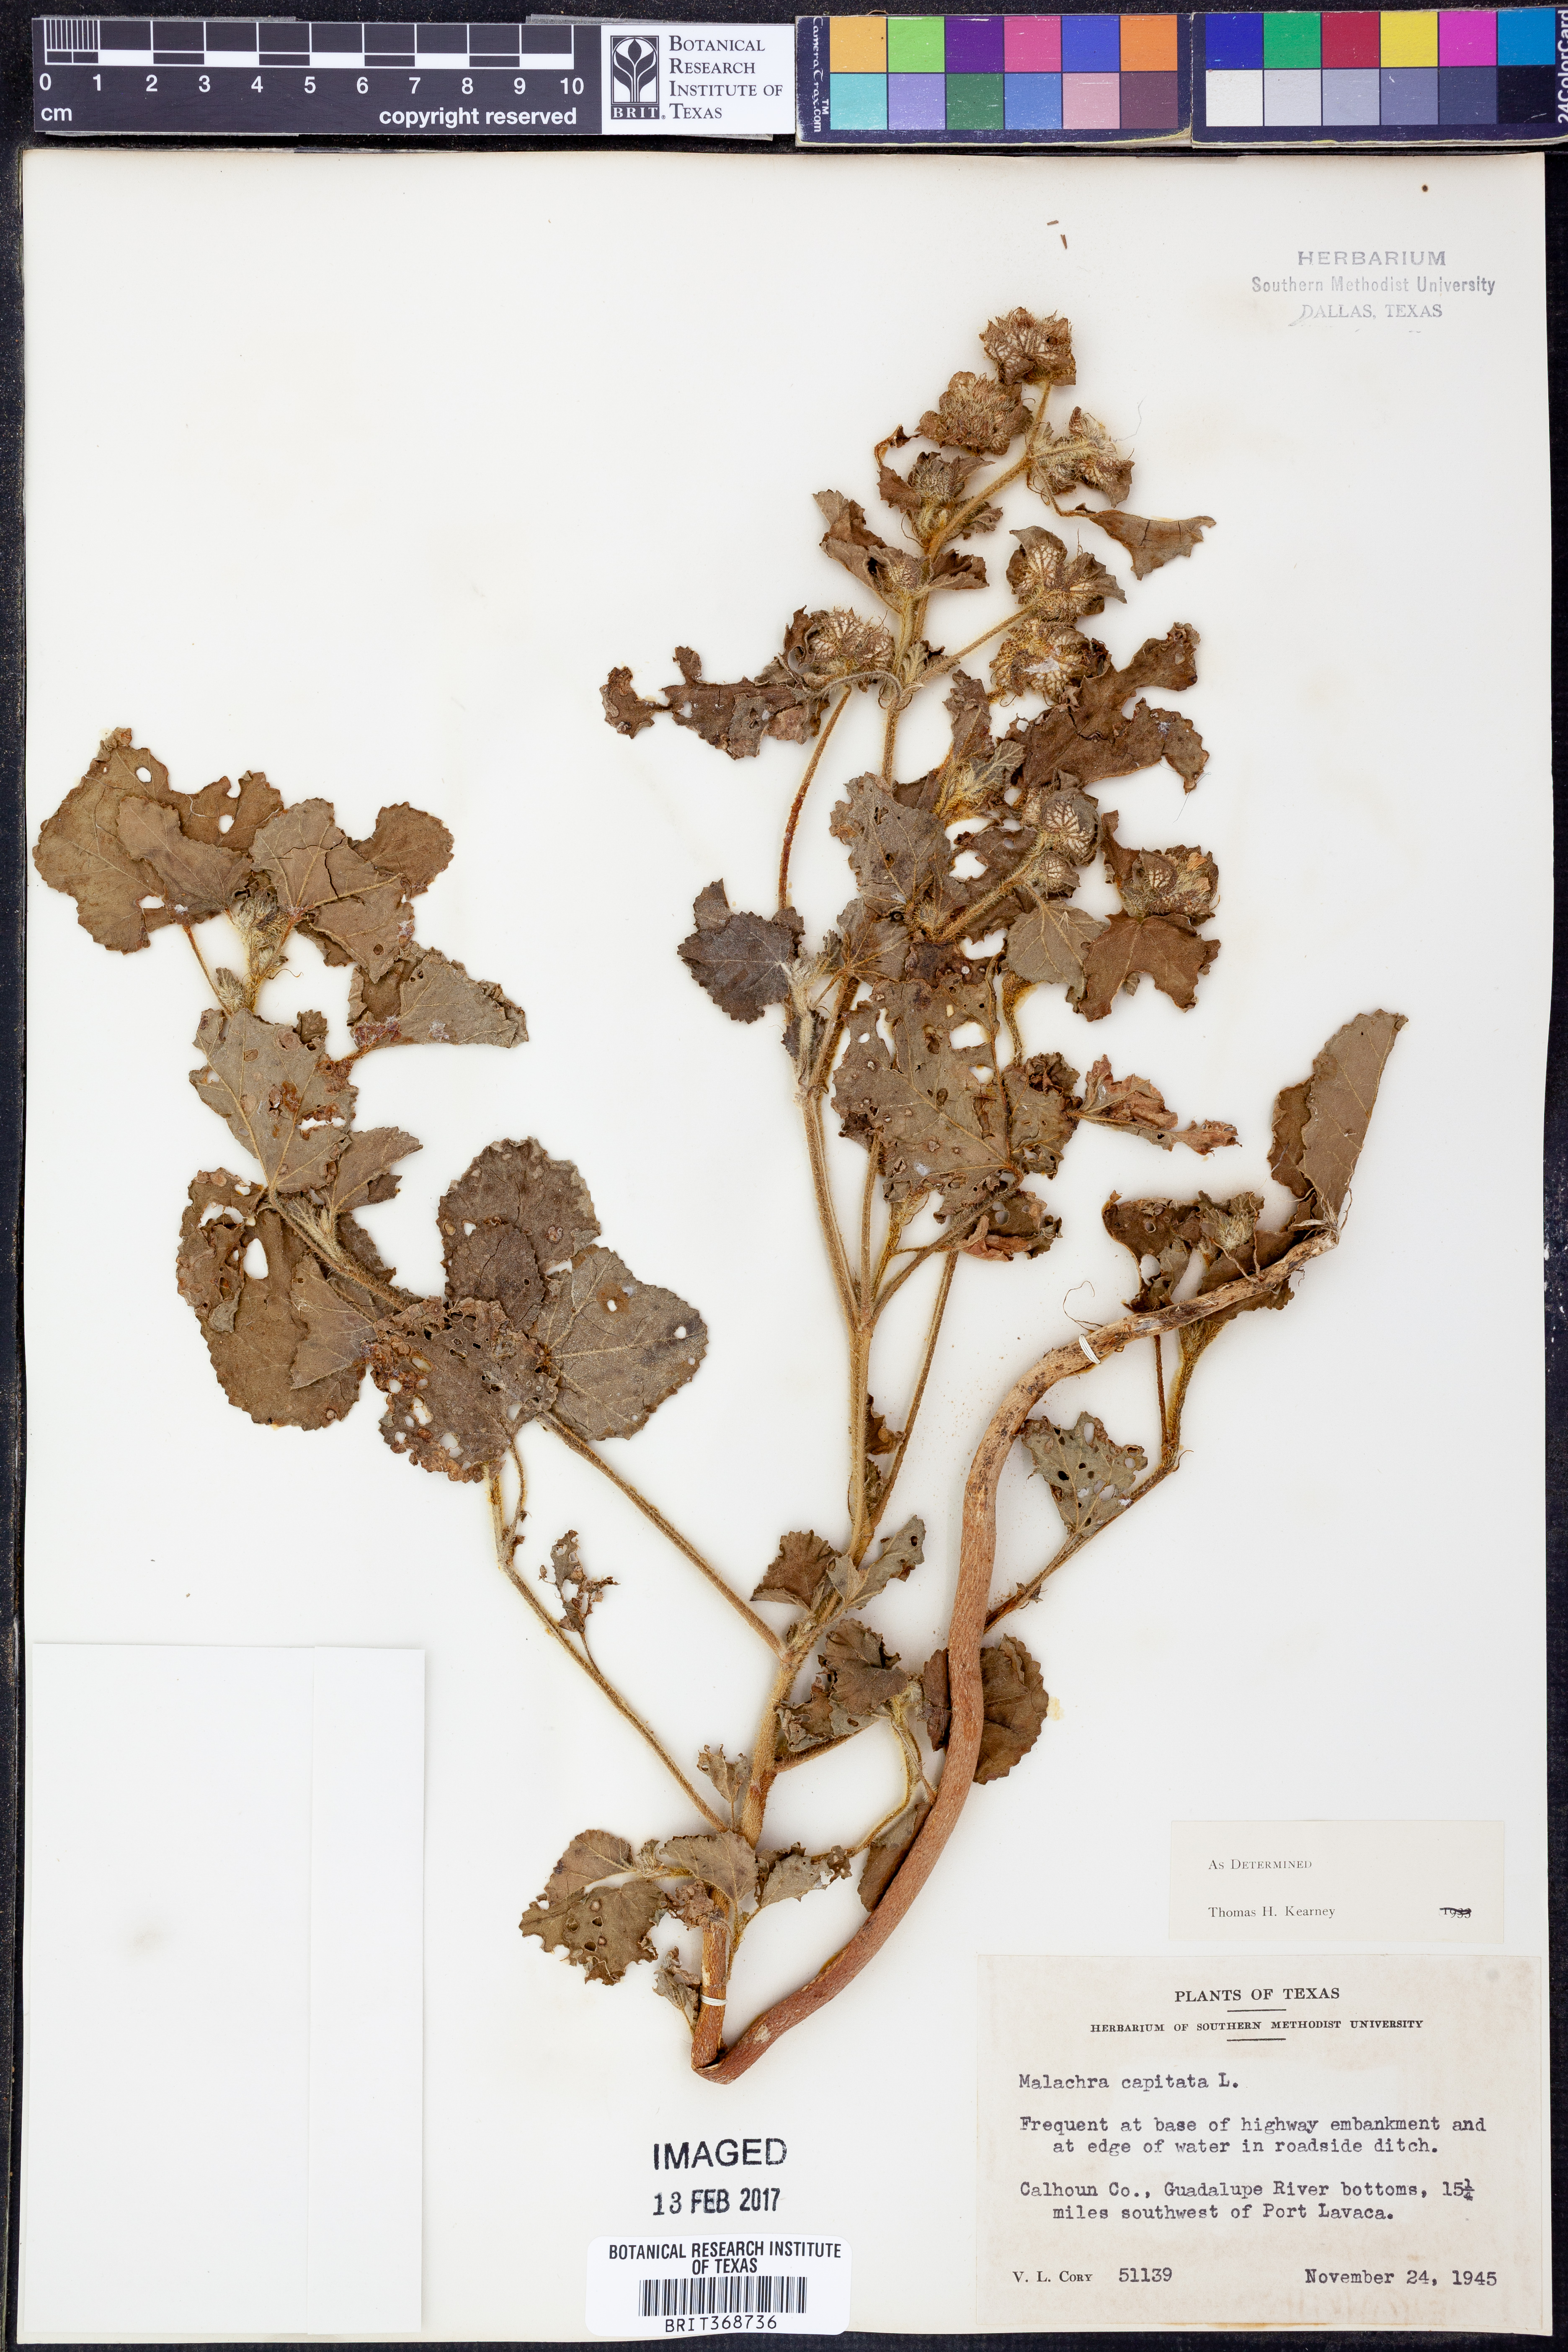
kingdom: Plantae
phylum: Tracheophyta
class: Magnoliopsida
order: Malvales
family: Malvaceae
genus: Malachra
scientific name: Malachra capitata
